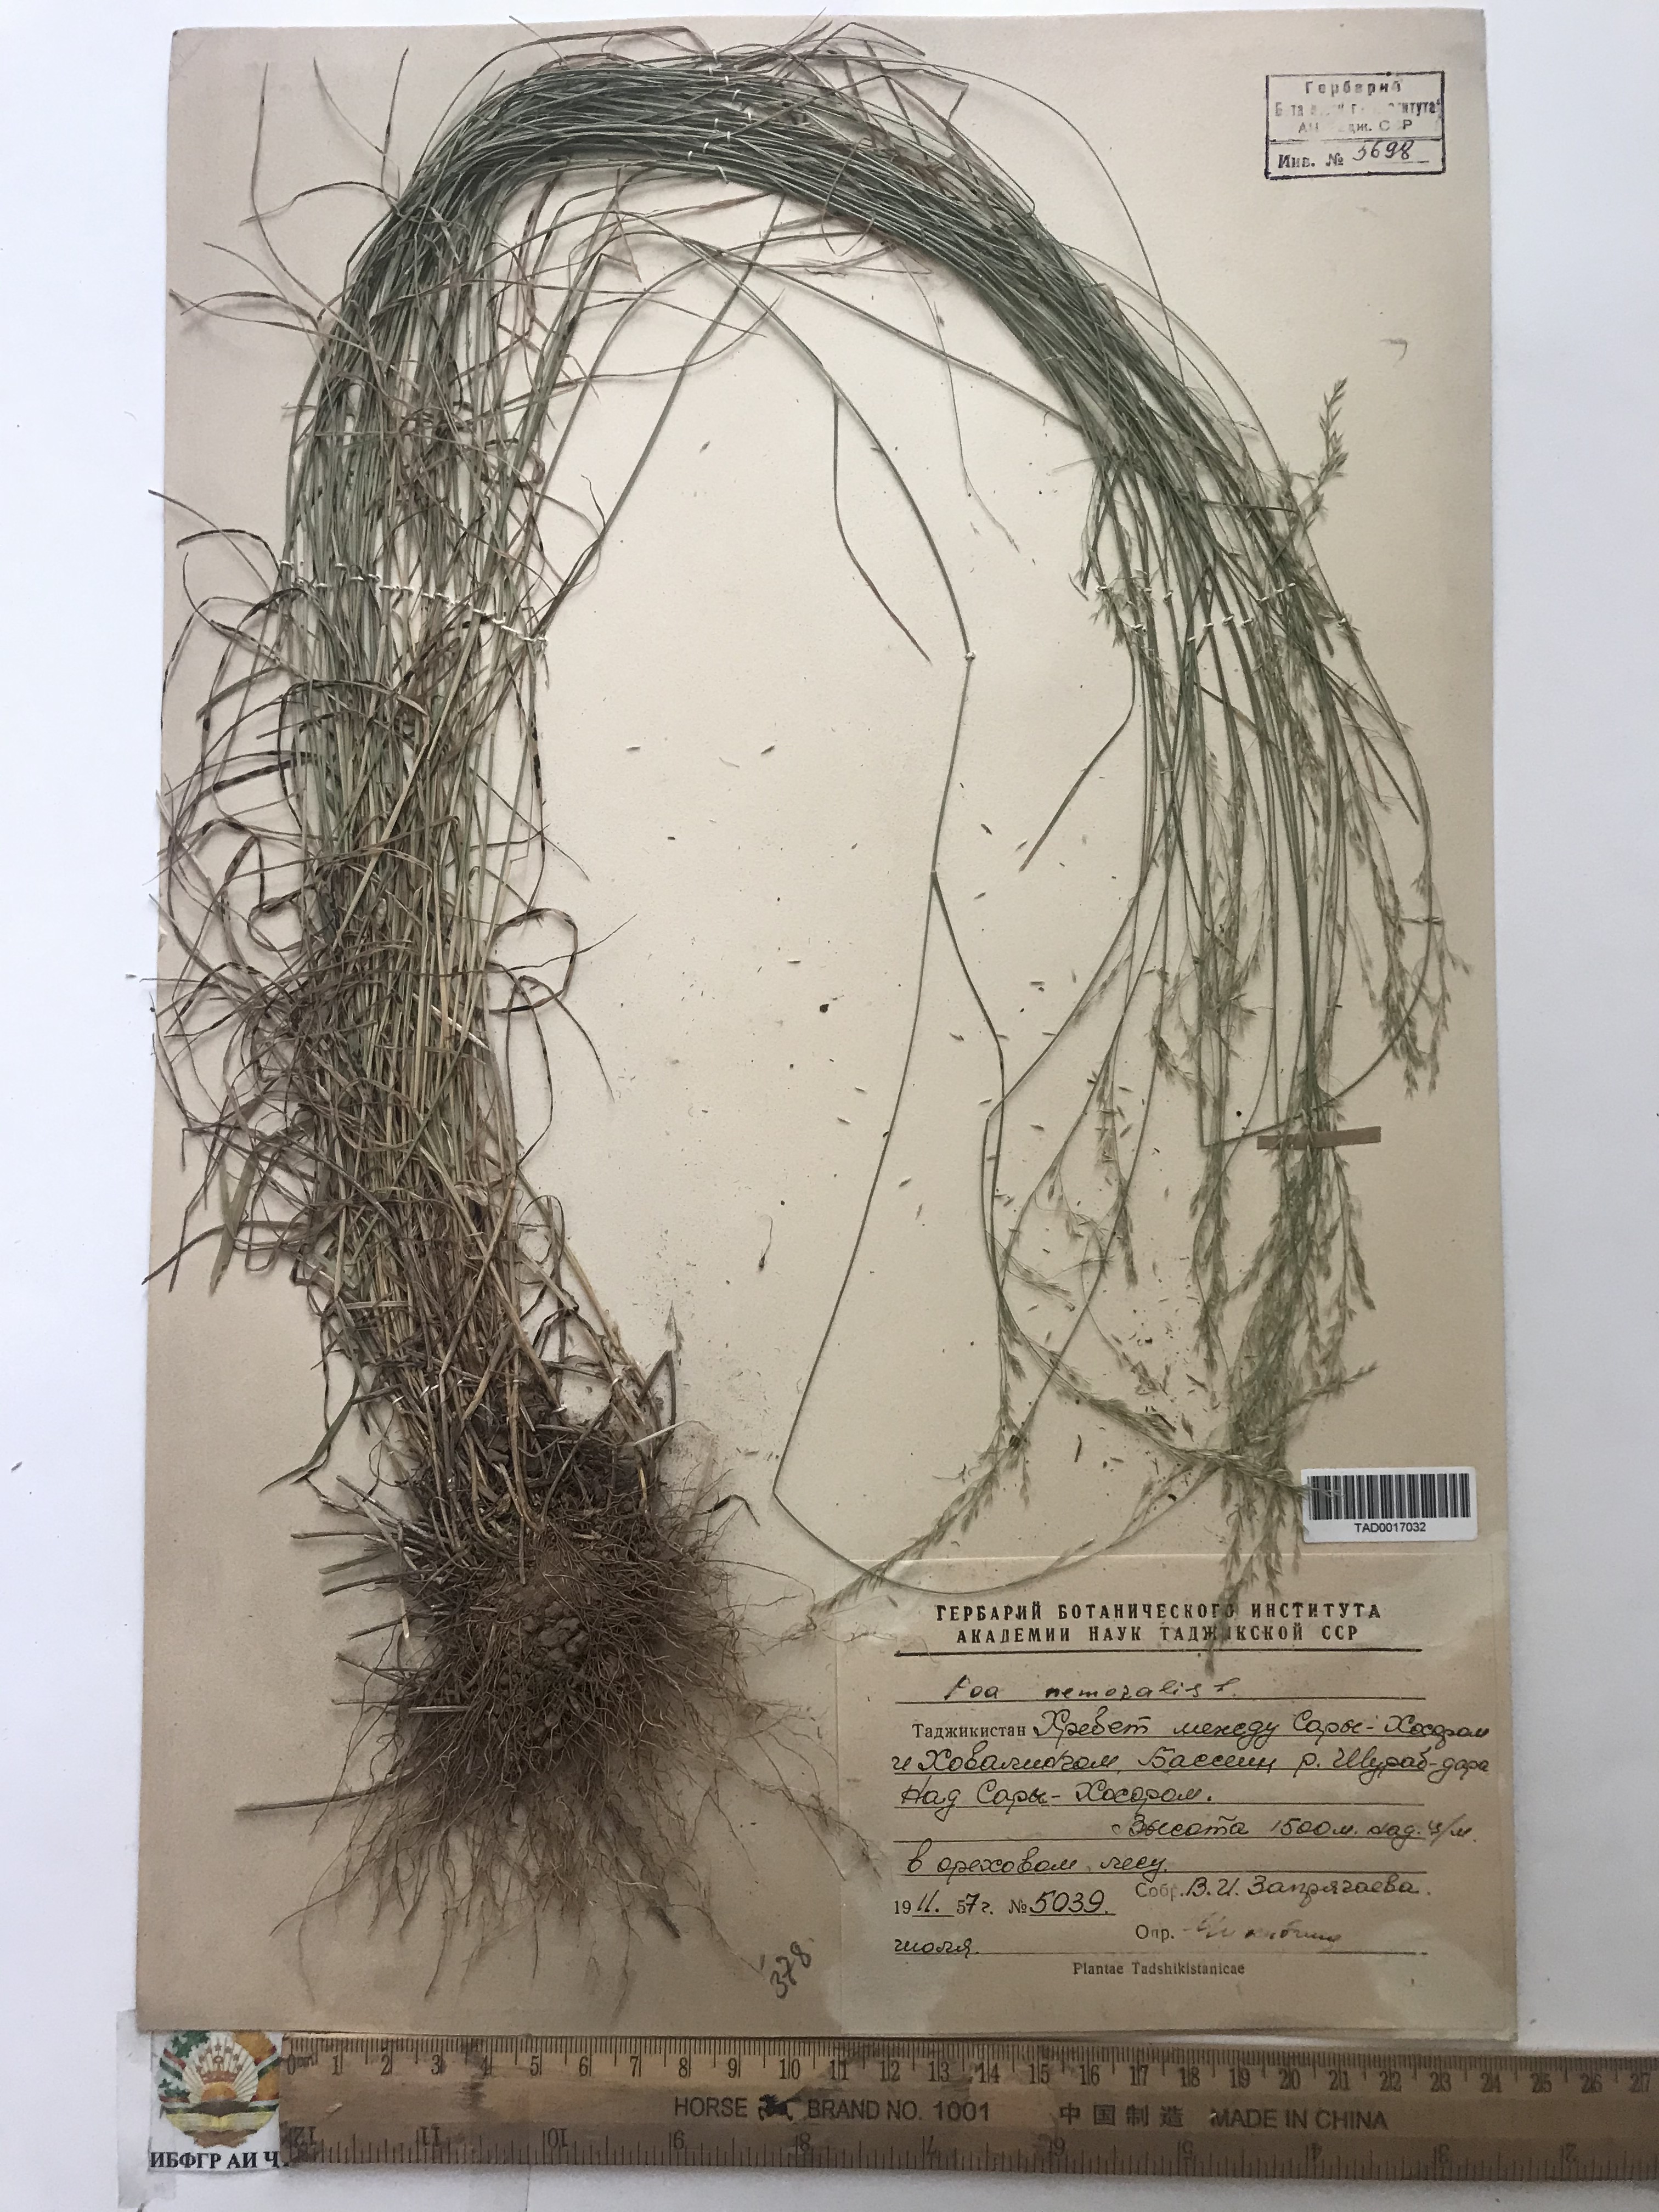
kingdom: Plantae
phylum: Tracheophyta
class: Liliopsida
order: Poales
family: Poaceae
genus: Poa
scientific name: Poa nemoralis
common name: Wood bluegrass
